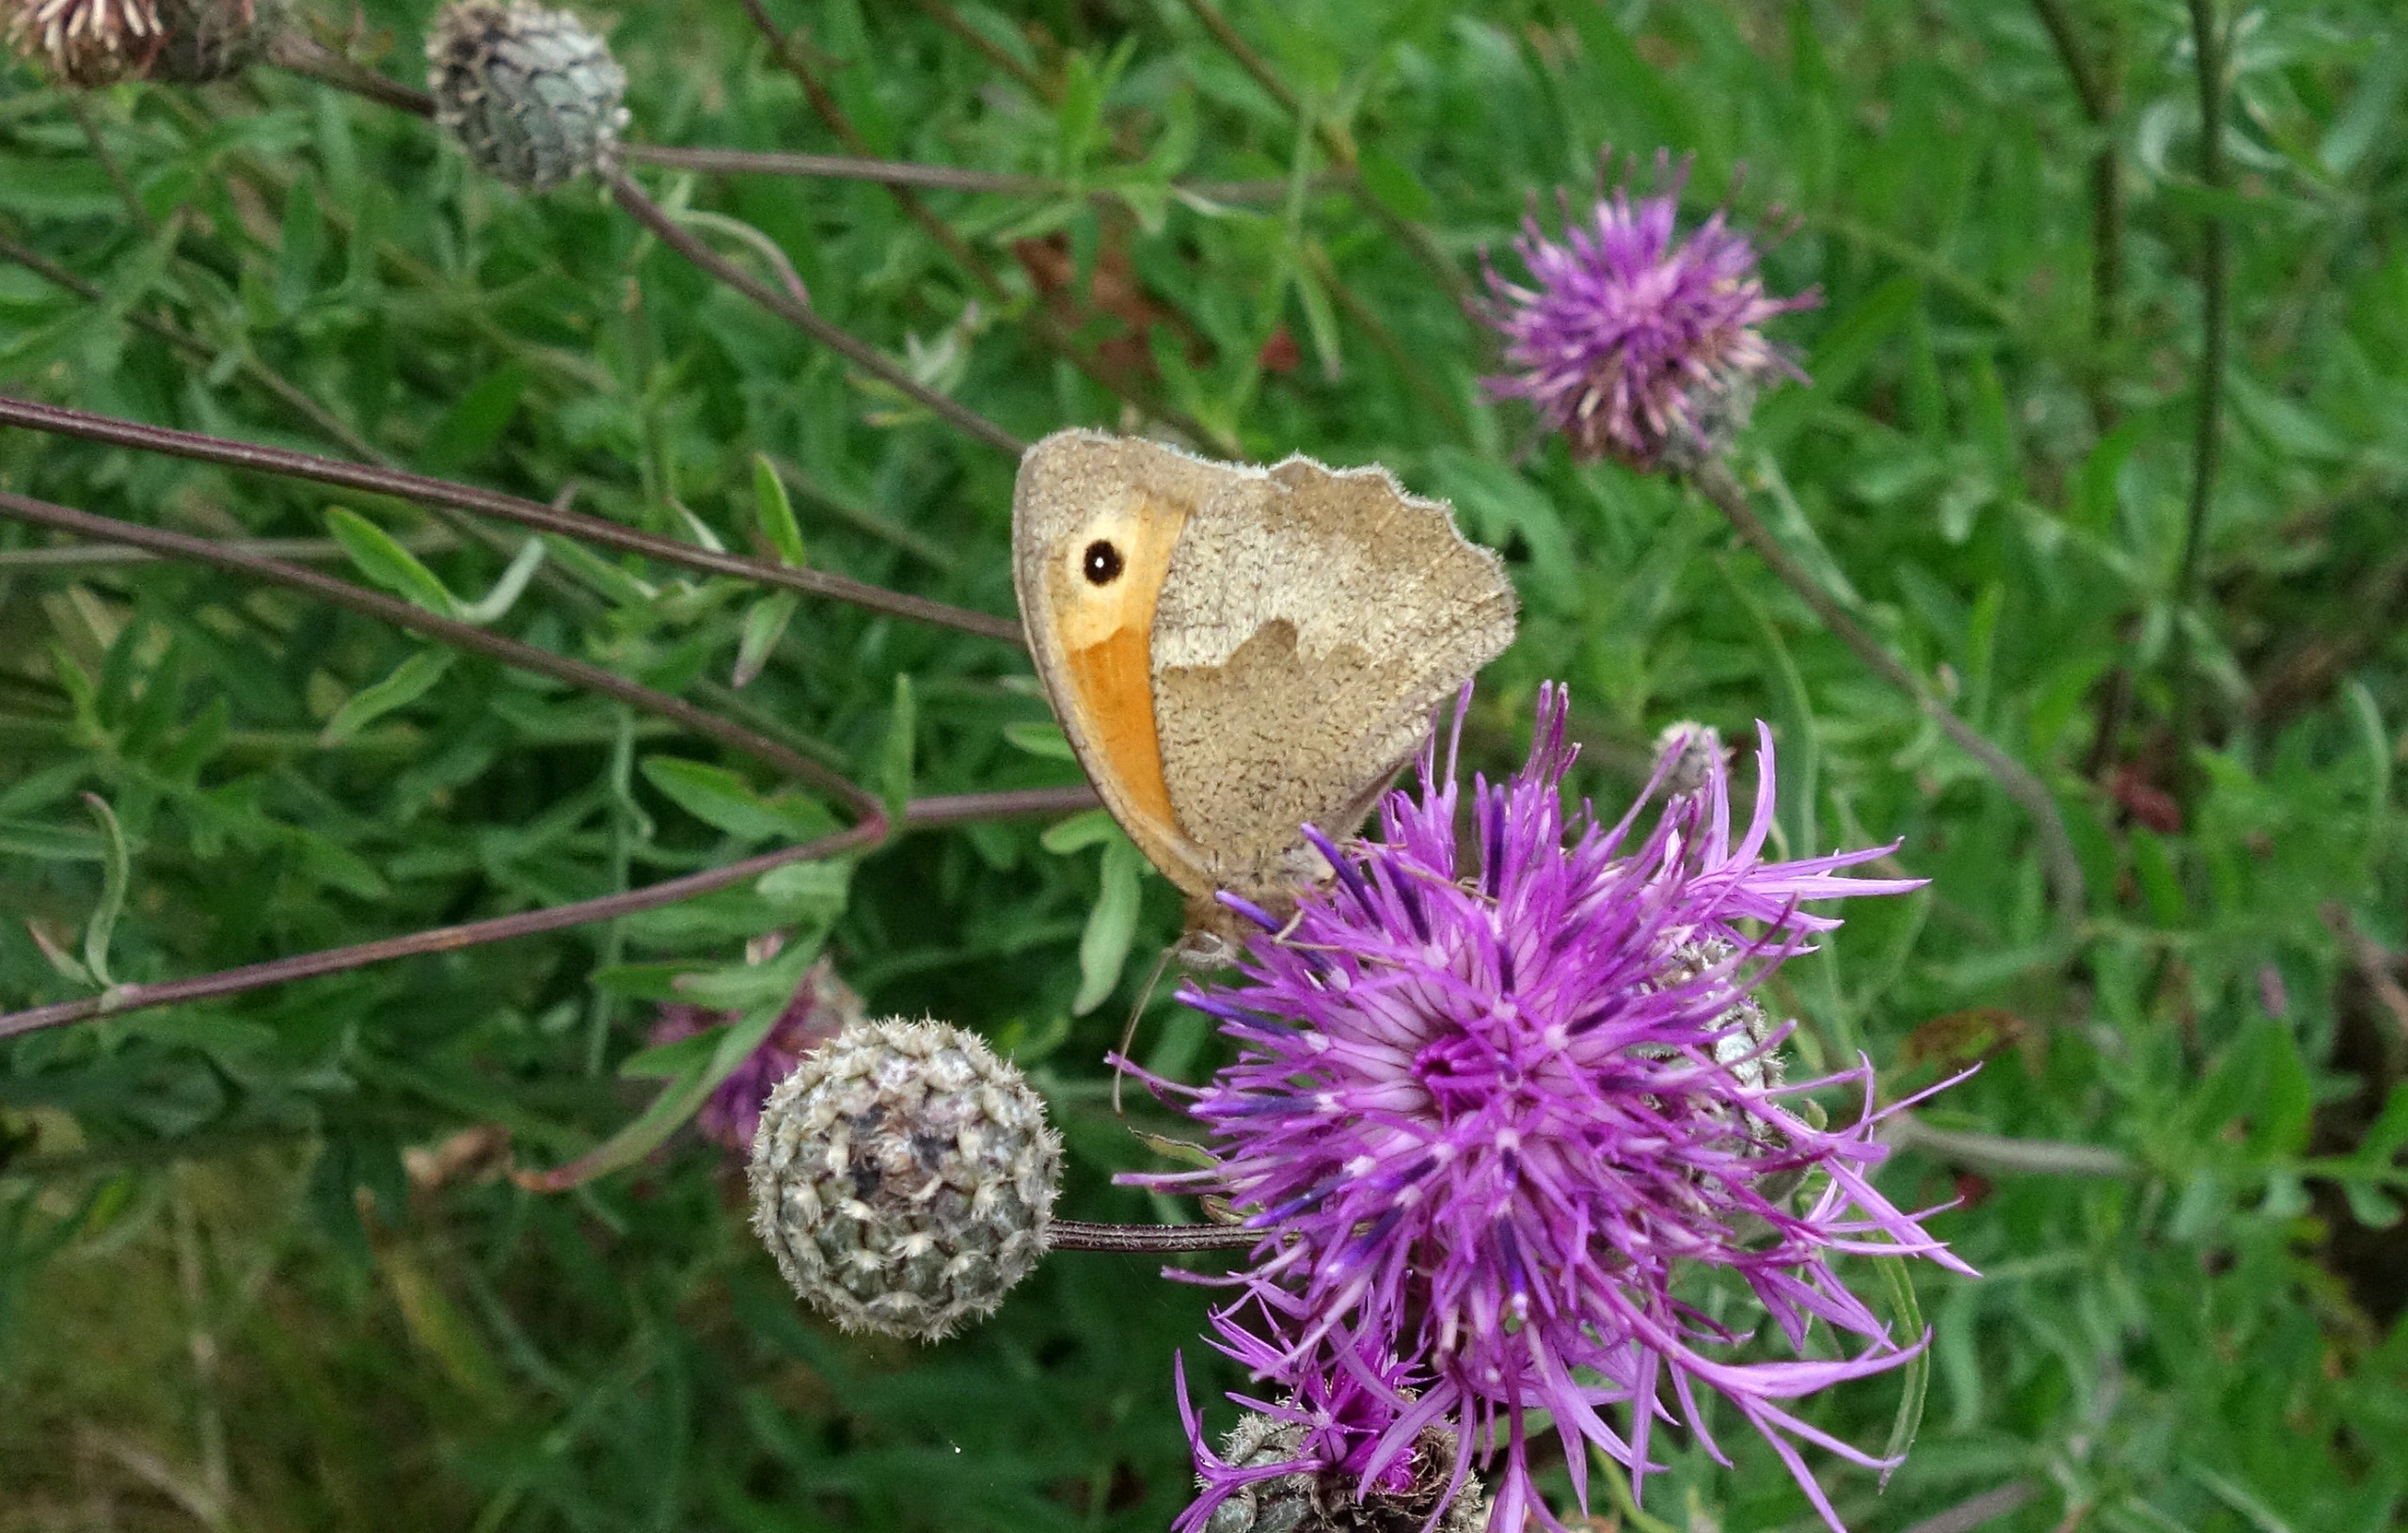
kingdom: Animalia
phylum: Arthropoda
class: Insecta
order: Lepidoptera
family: Nymphalidae
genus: Maniola
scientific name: Maniola jurtina
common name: Græsrandøje
